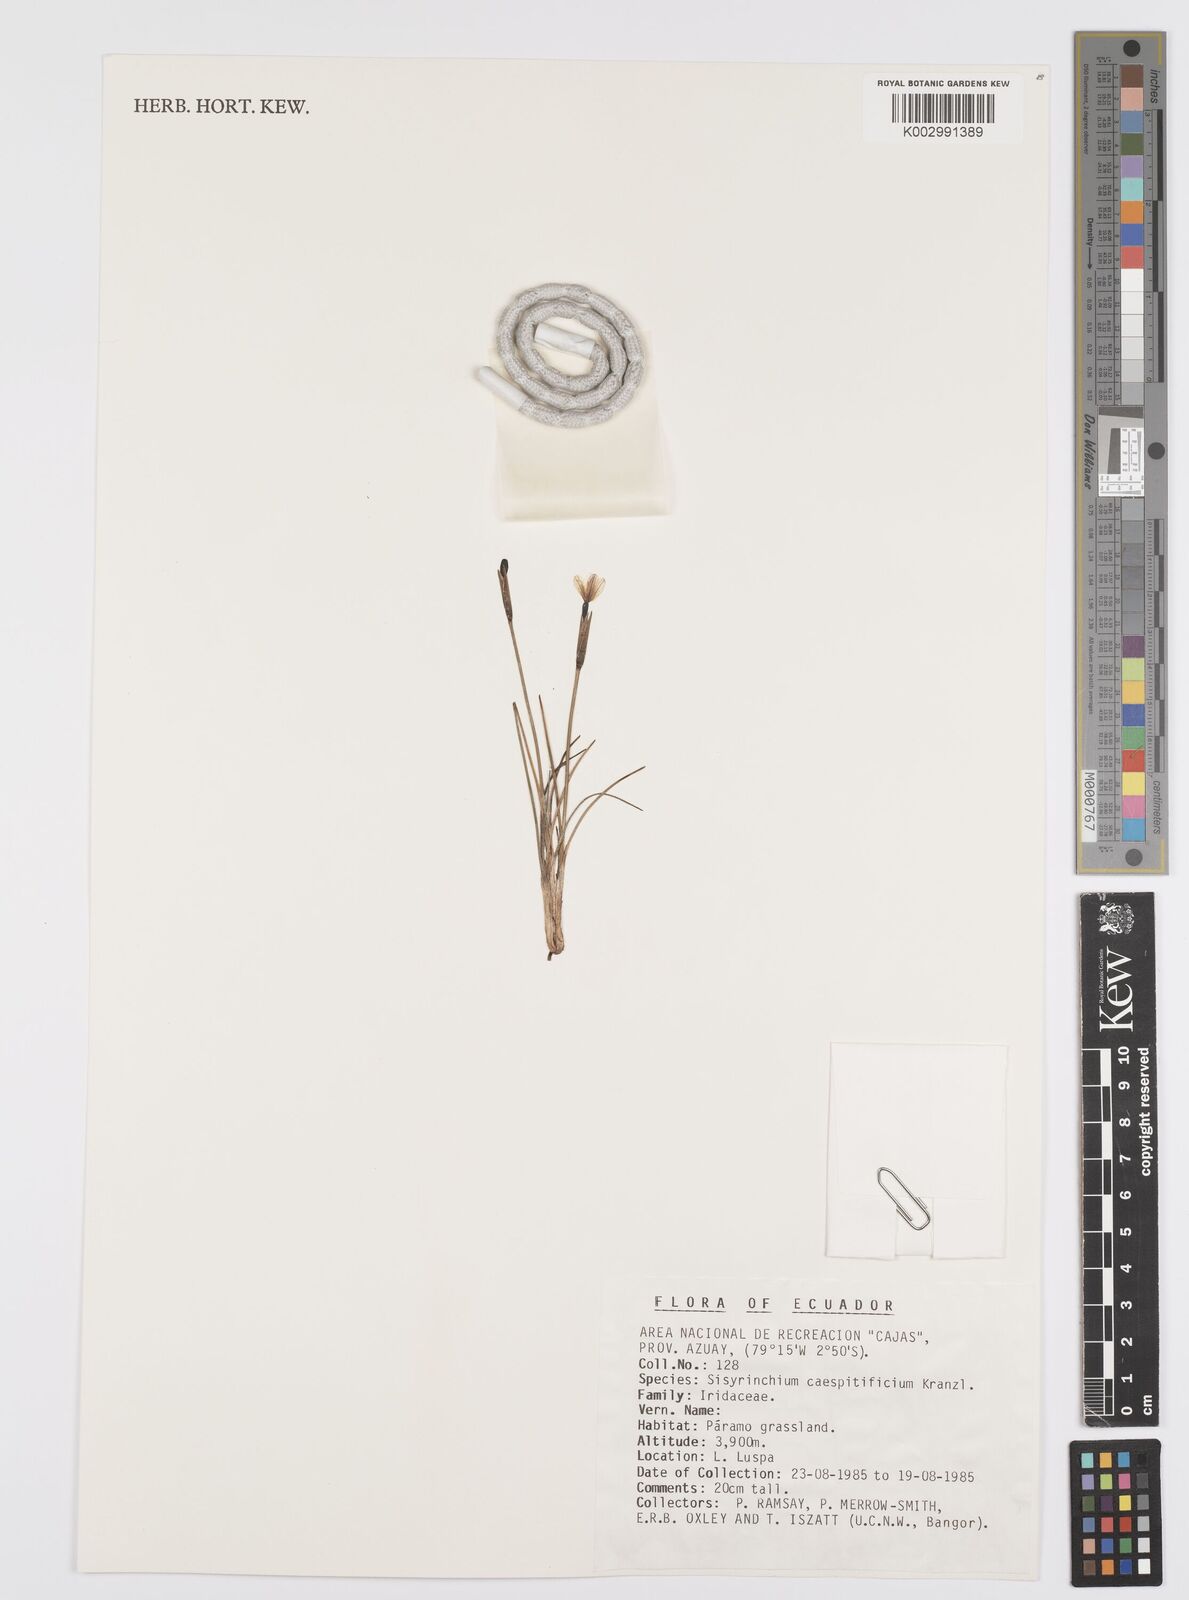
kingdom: Plantae
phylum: Tracheophyta
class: Liliopsida
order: Asparagales
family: Iridaceae
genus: Olsynium
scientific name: Olsynium junceum
